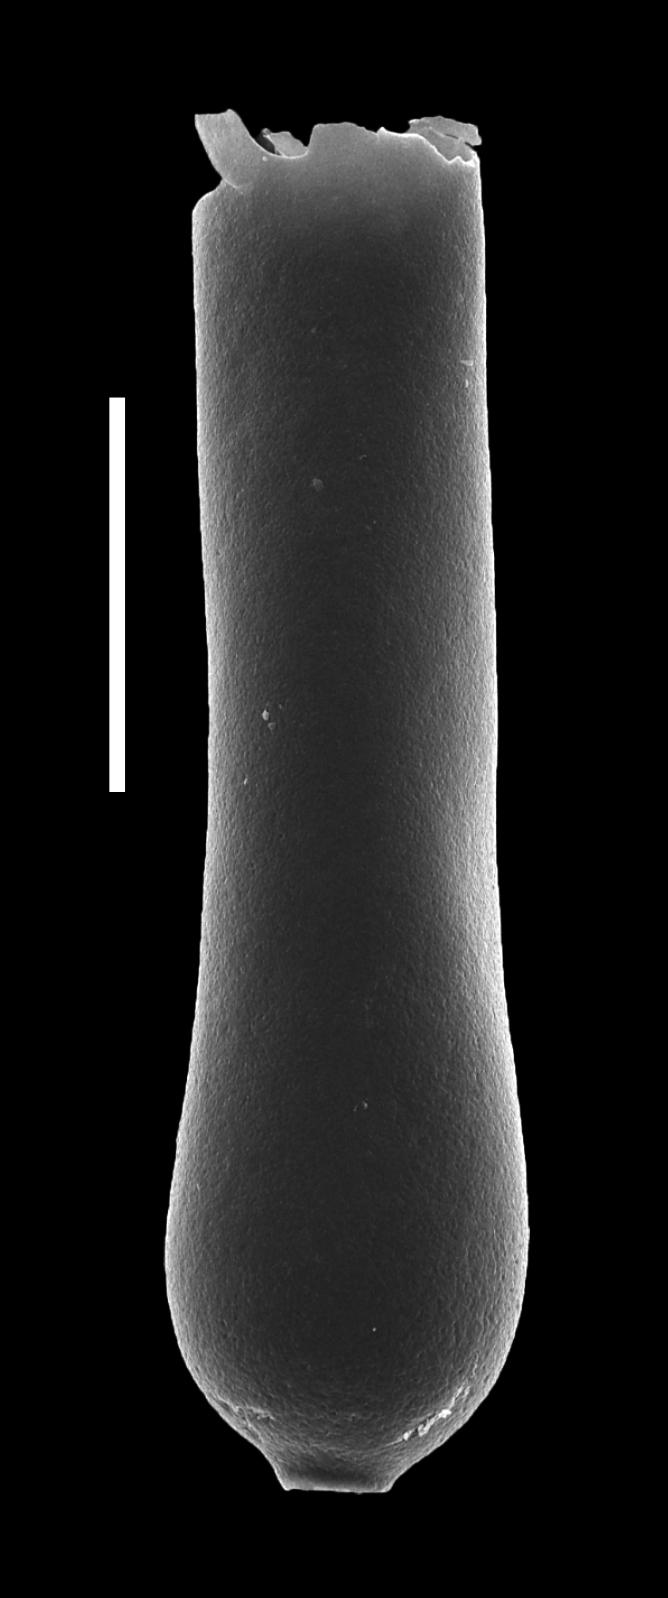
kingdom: Animalia
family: Conochitinidae
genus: Conochitina
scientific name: Conochitina
